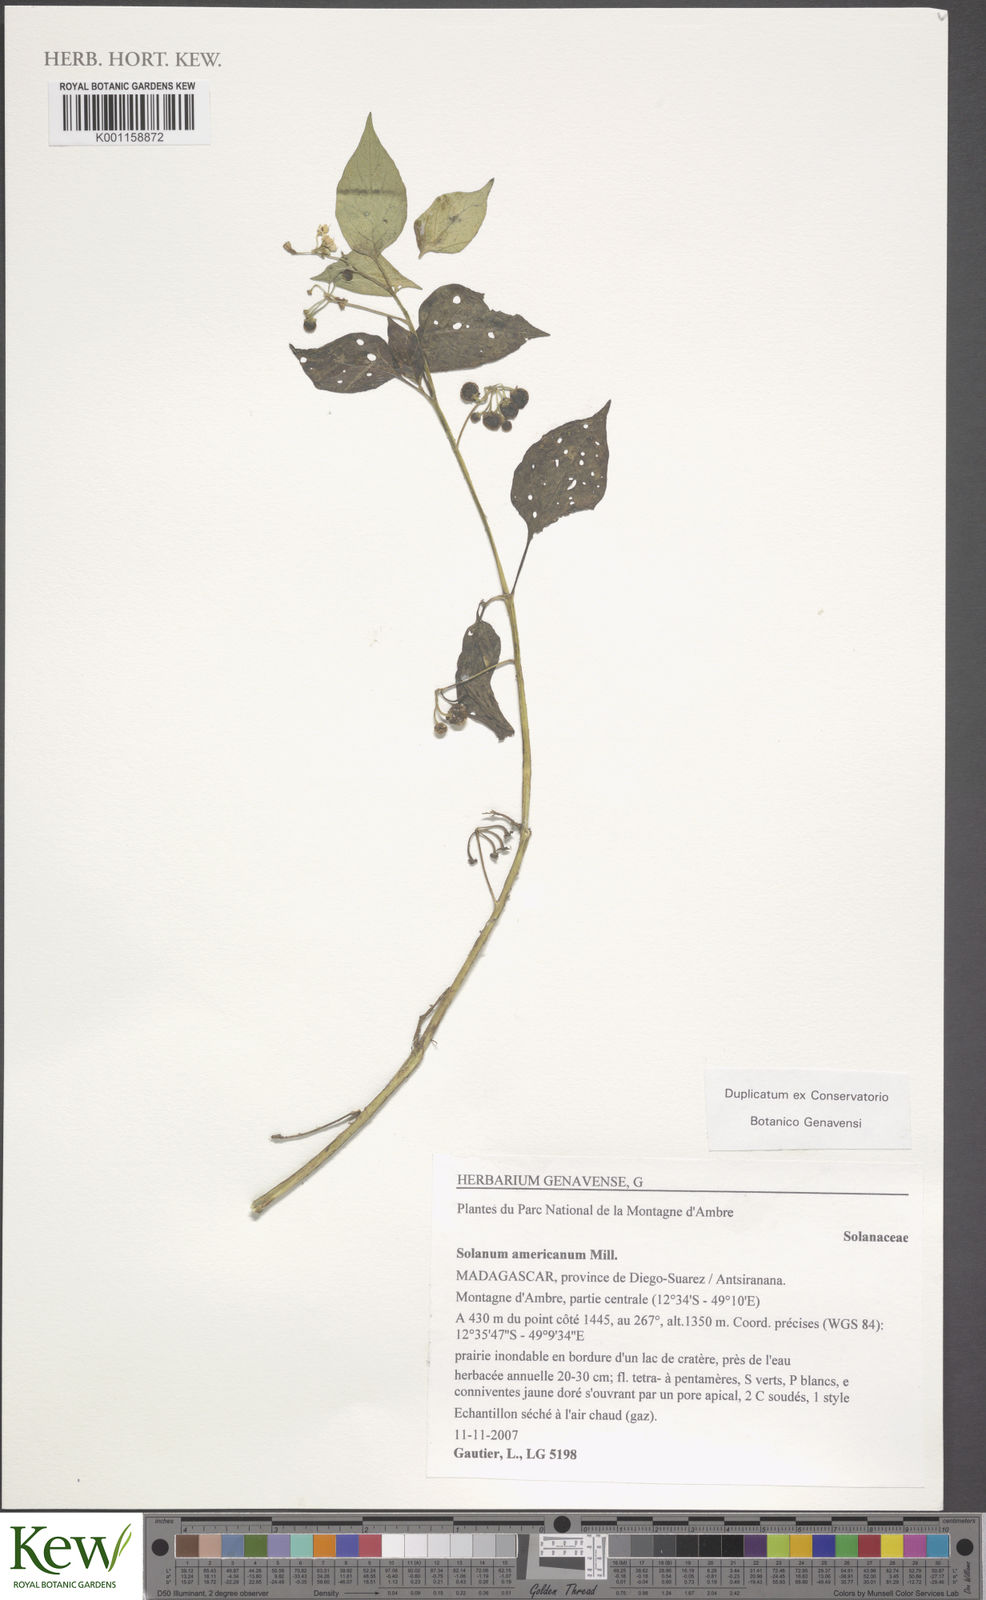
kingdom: Plantae
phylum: Tracheophyta
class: Magnoliopsida
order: Solanales
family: Solanaceae
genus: Solanum
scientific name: Solanum scabrum
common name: Garden-huckleberry
